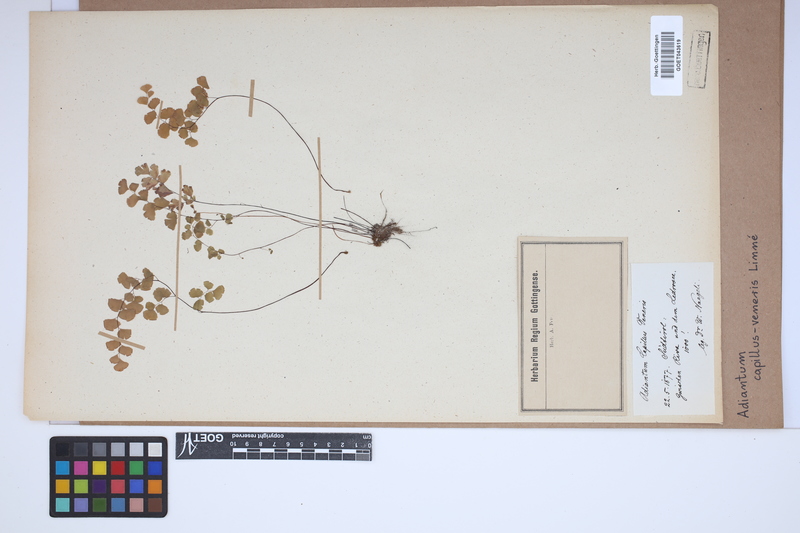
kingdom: Plantae
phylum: Tracheophyta
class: Polypodiopsida
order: Polypodiales
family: Pteridaceae
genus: Adiantum
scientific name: Adiantum capillus-veneris
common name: Maidenhair fern
